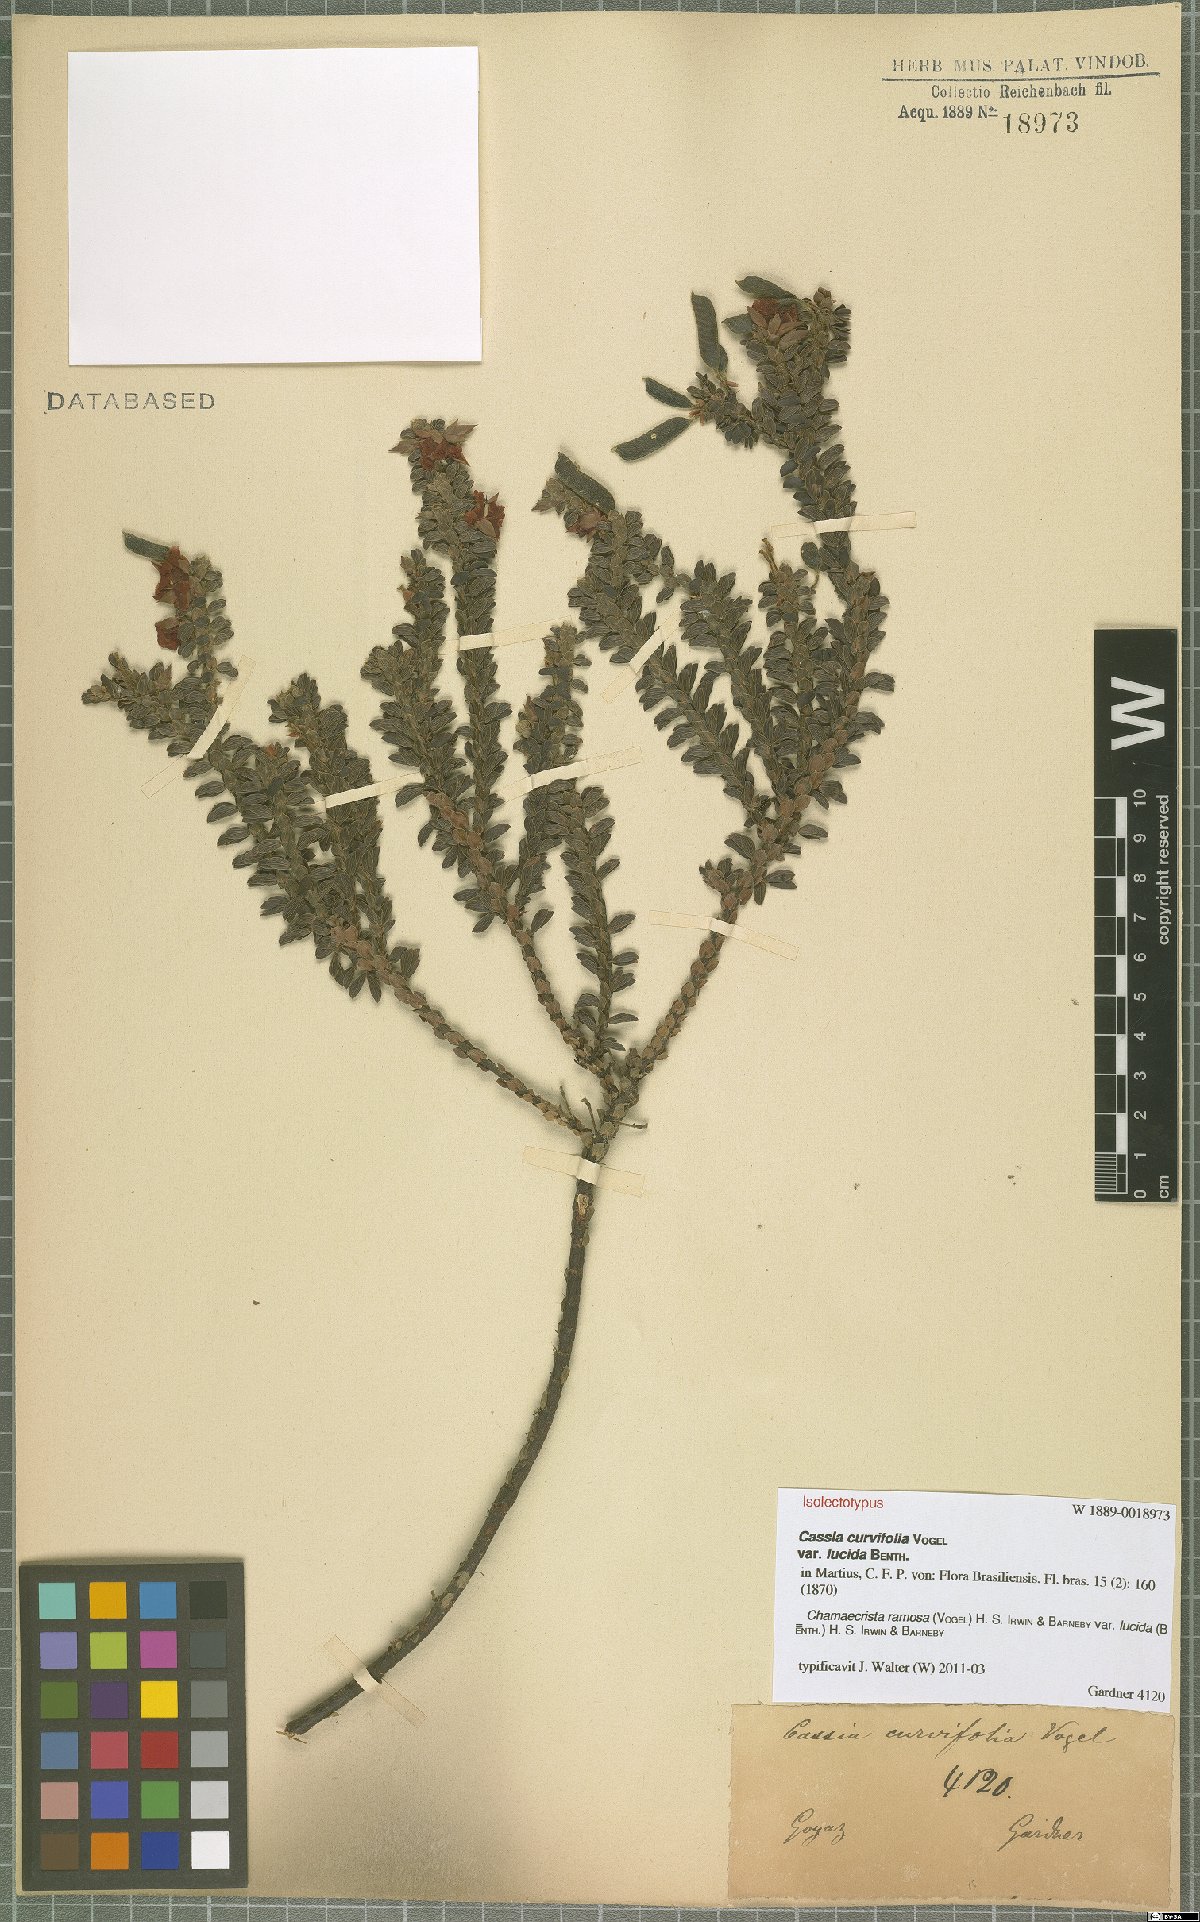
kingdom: Plantae
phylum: Tracheophyta
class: Magnoliopsida
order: Fabales
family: Fabaceae
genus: Chamaecrista
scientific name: Chamaecrista ramosa
